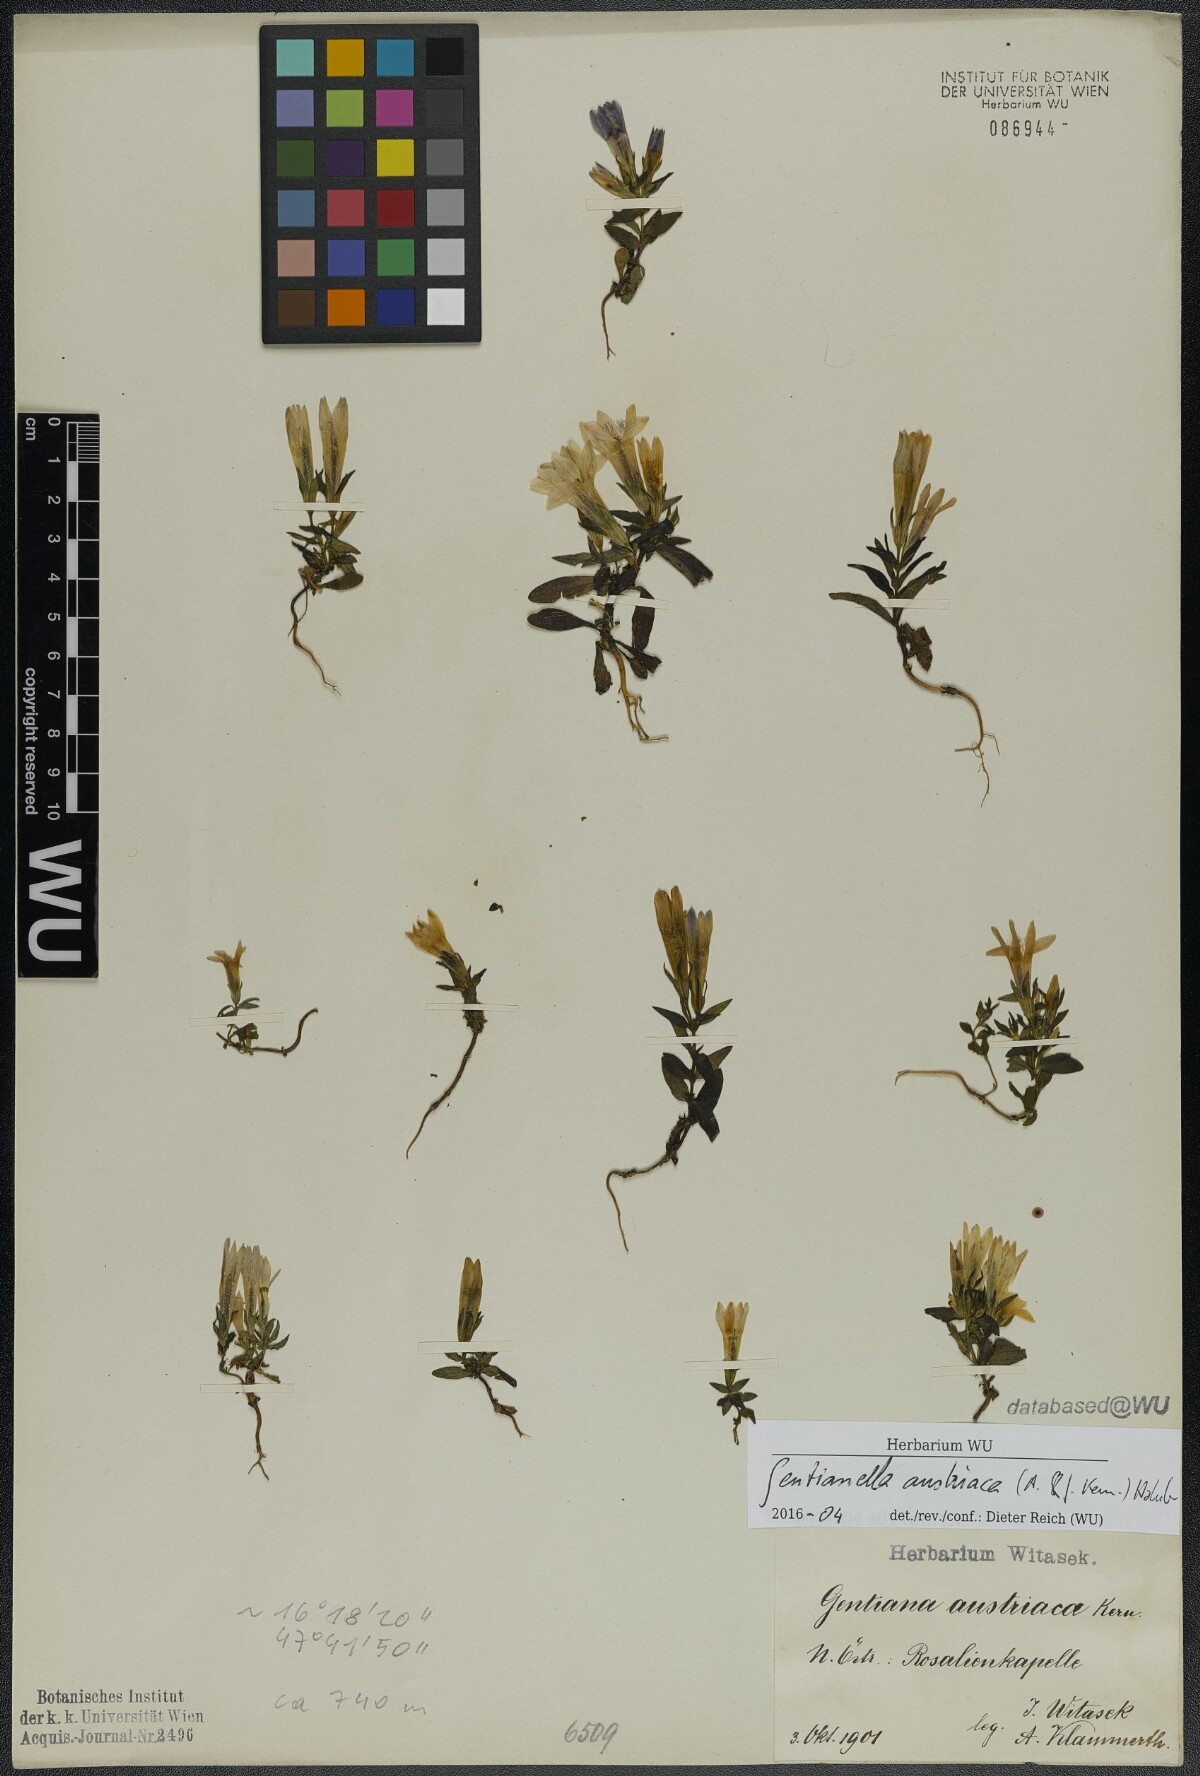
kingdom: Plantae
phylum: Tracheophyta
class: Magnoliopsida
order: Gentianales
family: Gentianaceae
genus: Gentianella
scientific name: Gentianella austriaca
